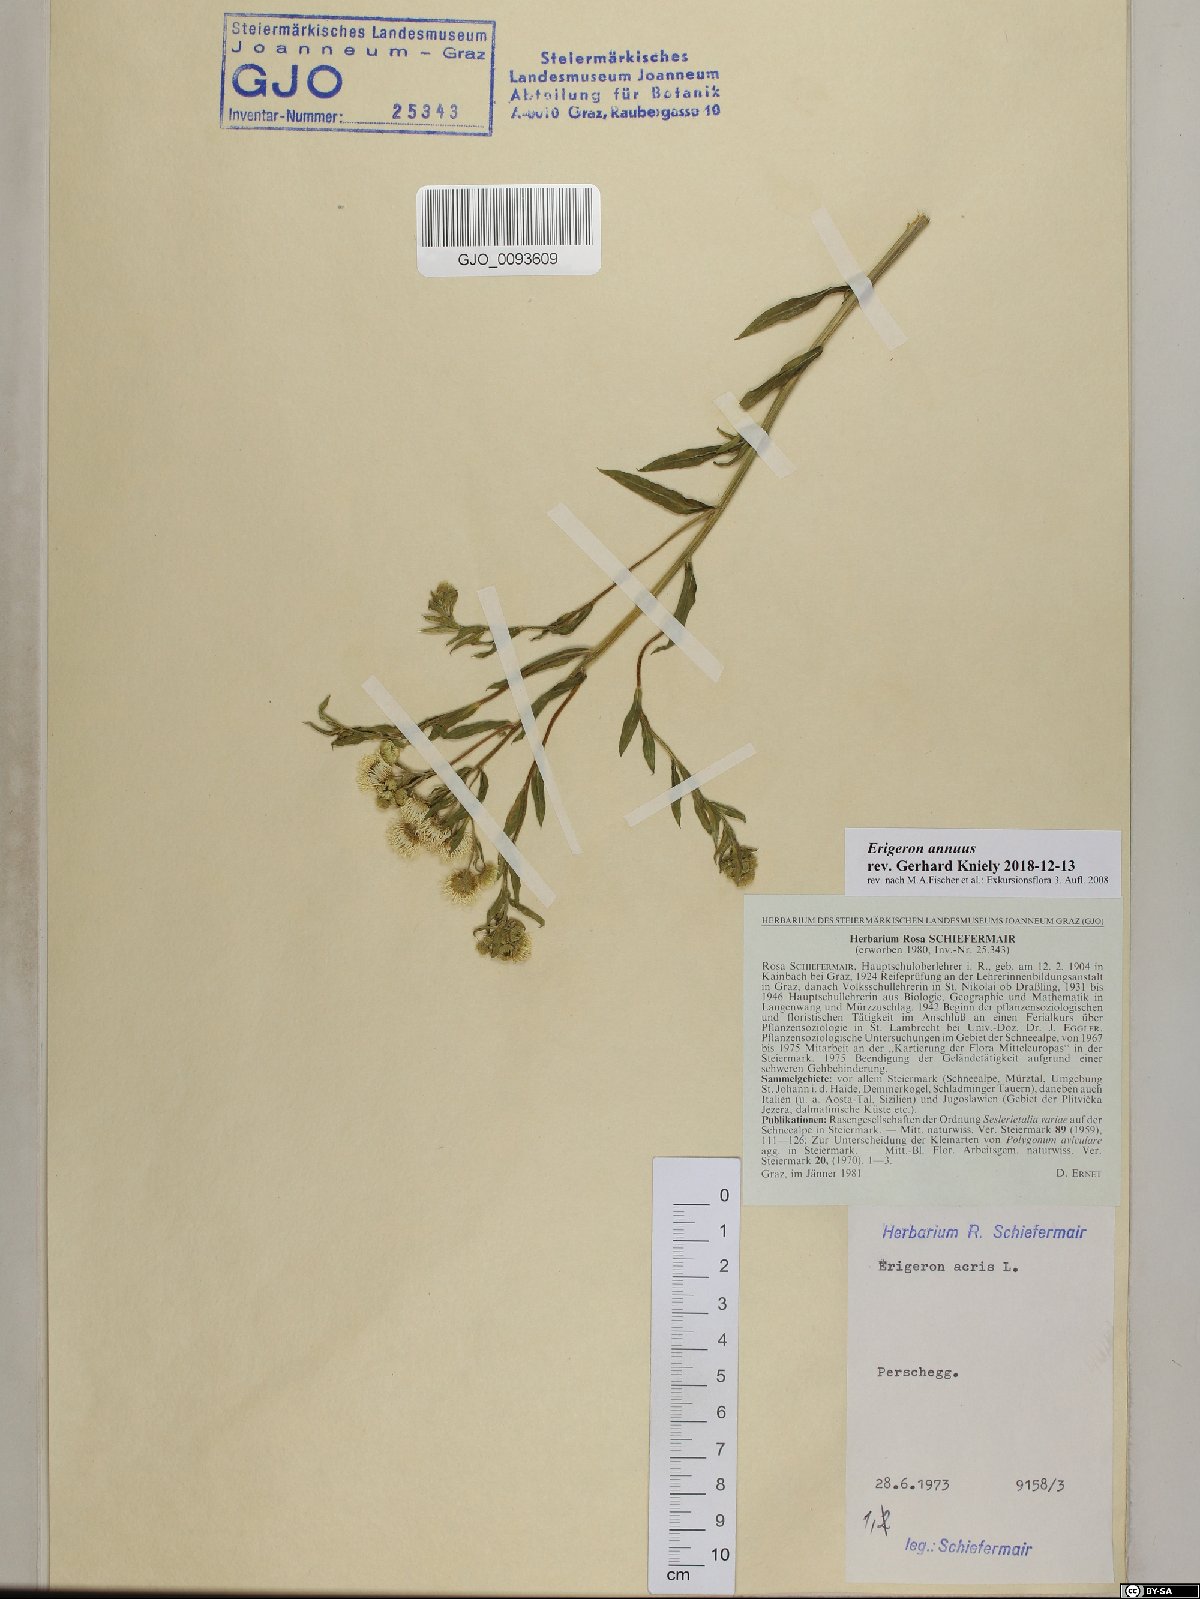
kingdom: Plantae
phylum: Tracheophyta
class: Magnoliopsida
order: Asterales
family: Asteraceae
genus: Erigeron
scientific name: Erigeron annuus
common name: Tall fleabane
